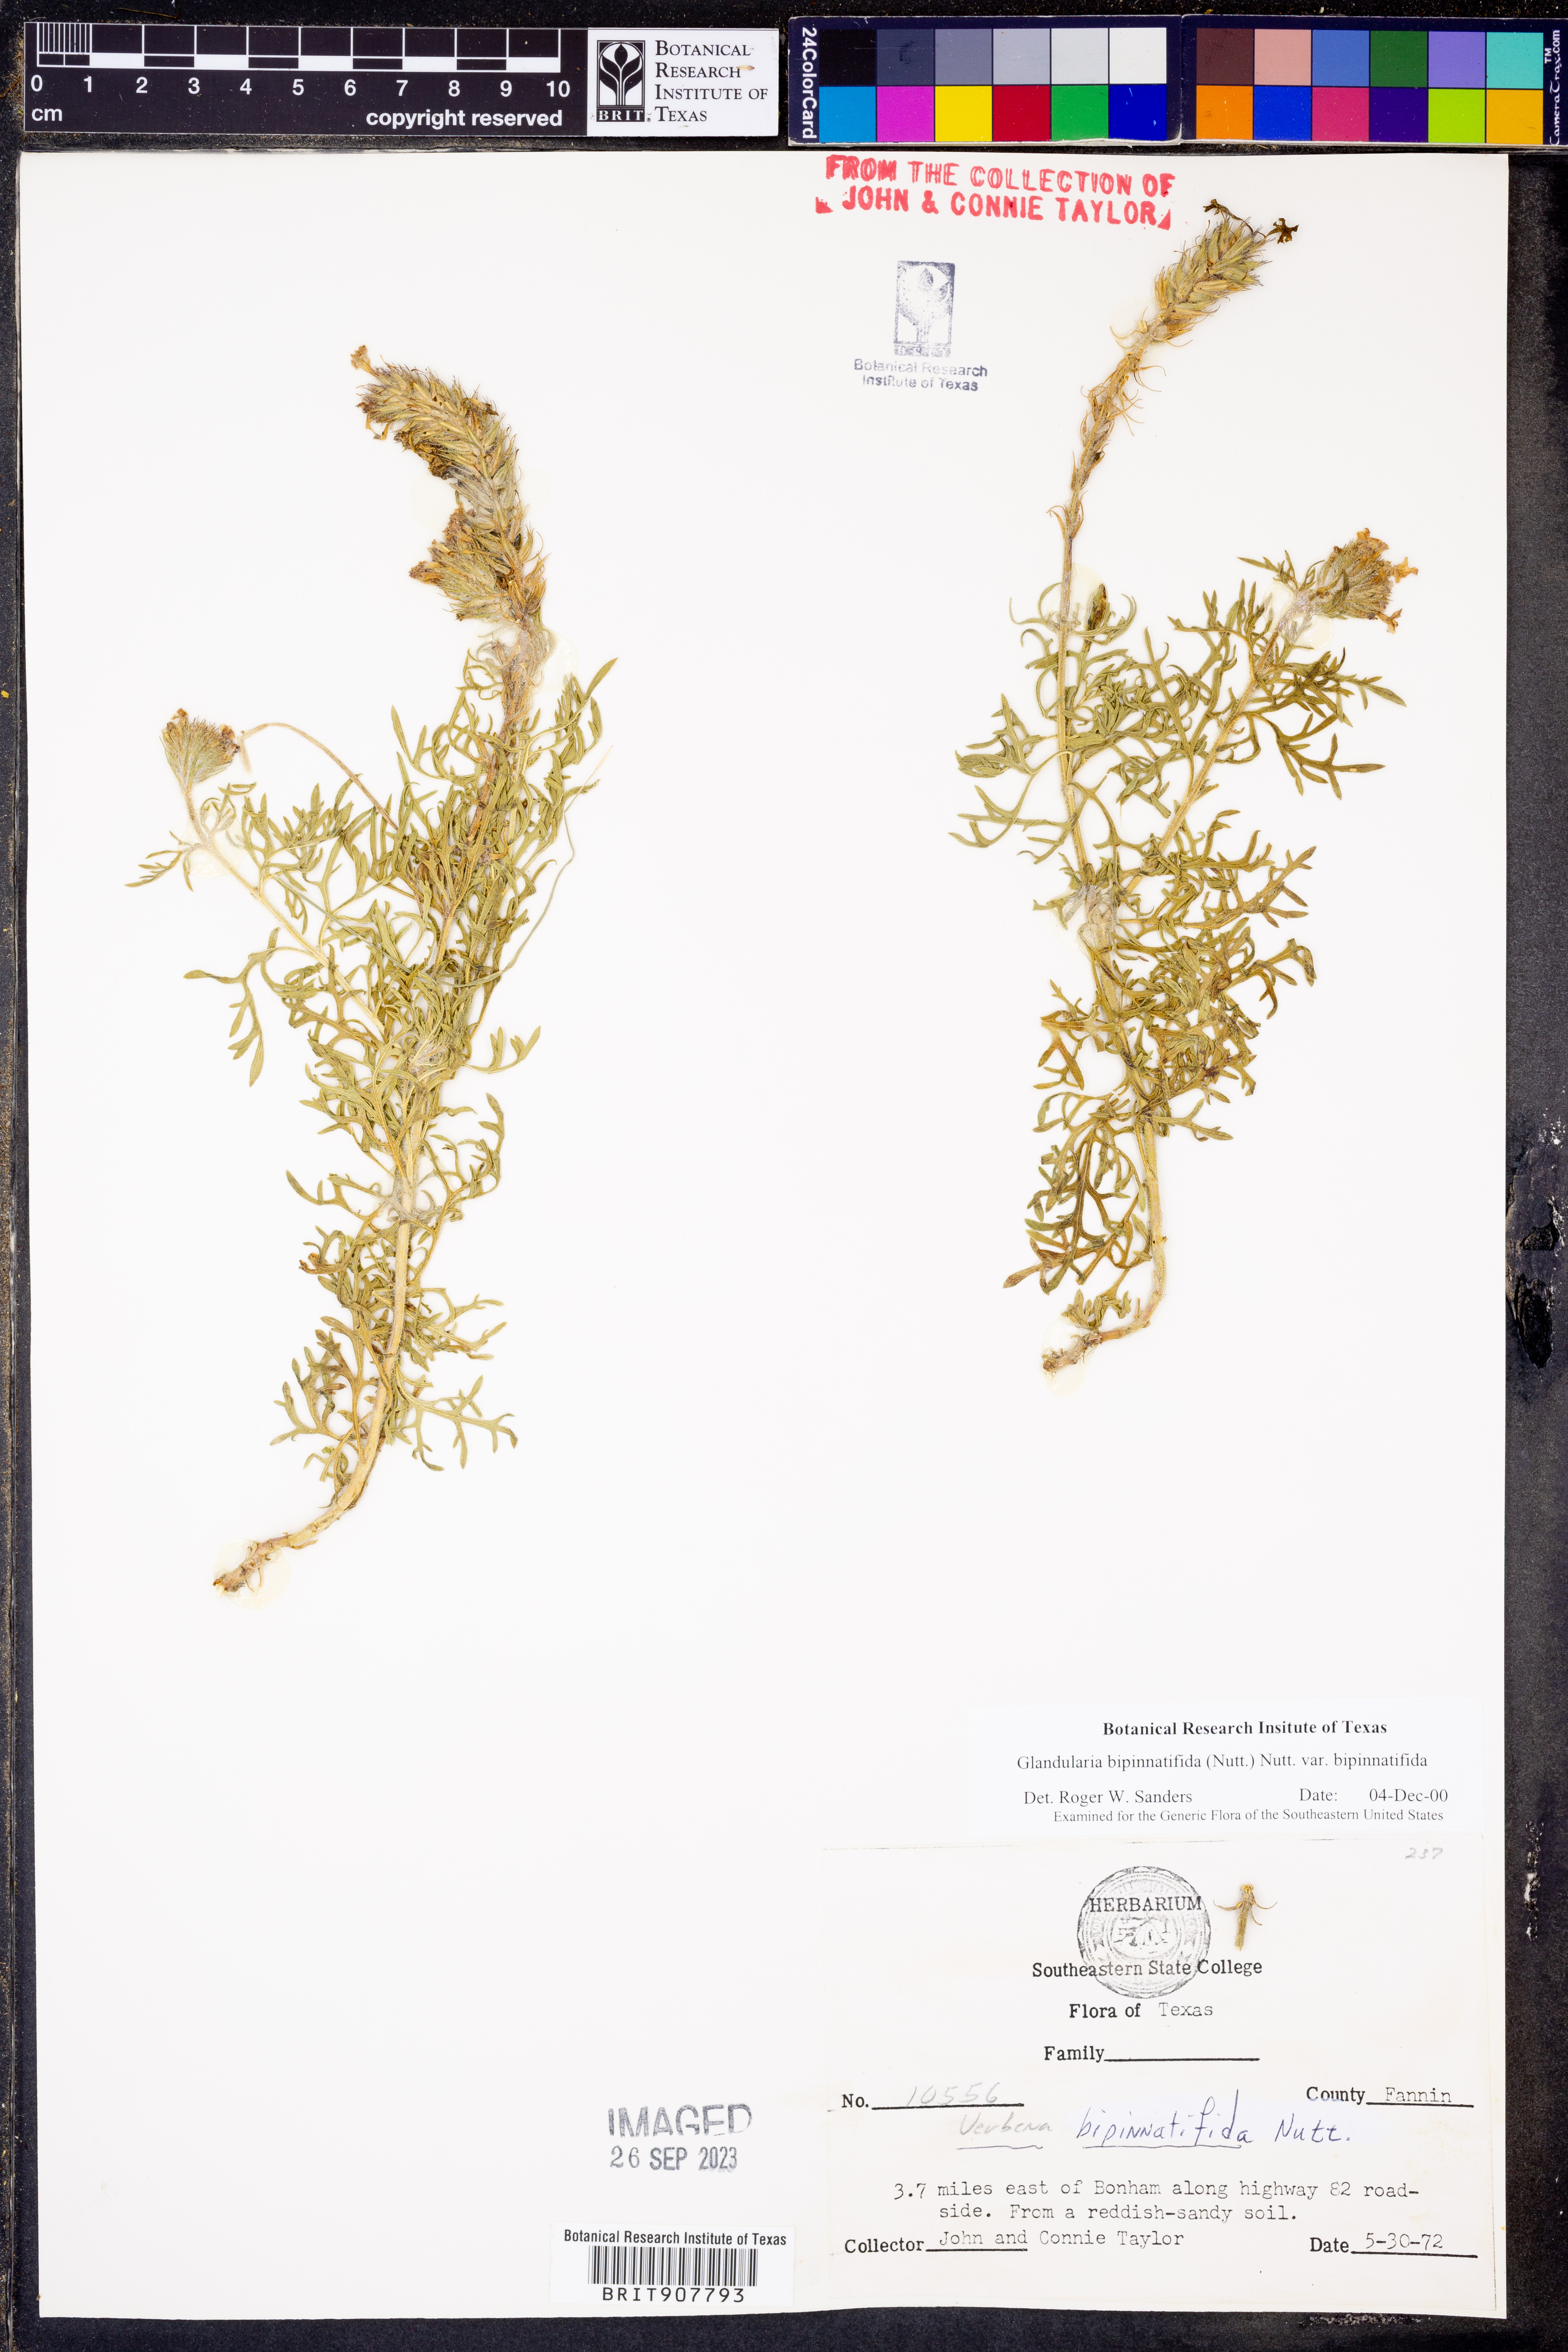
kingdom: Plantae
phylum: Tracheophyta
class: Magnoliopsida
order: Lamiales
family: Verbenaceae
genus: Verbena
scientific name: Verbena bipinnatifida
